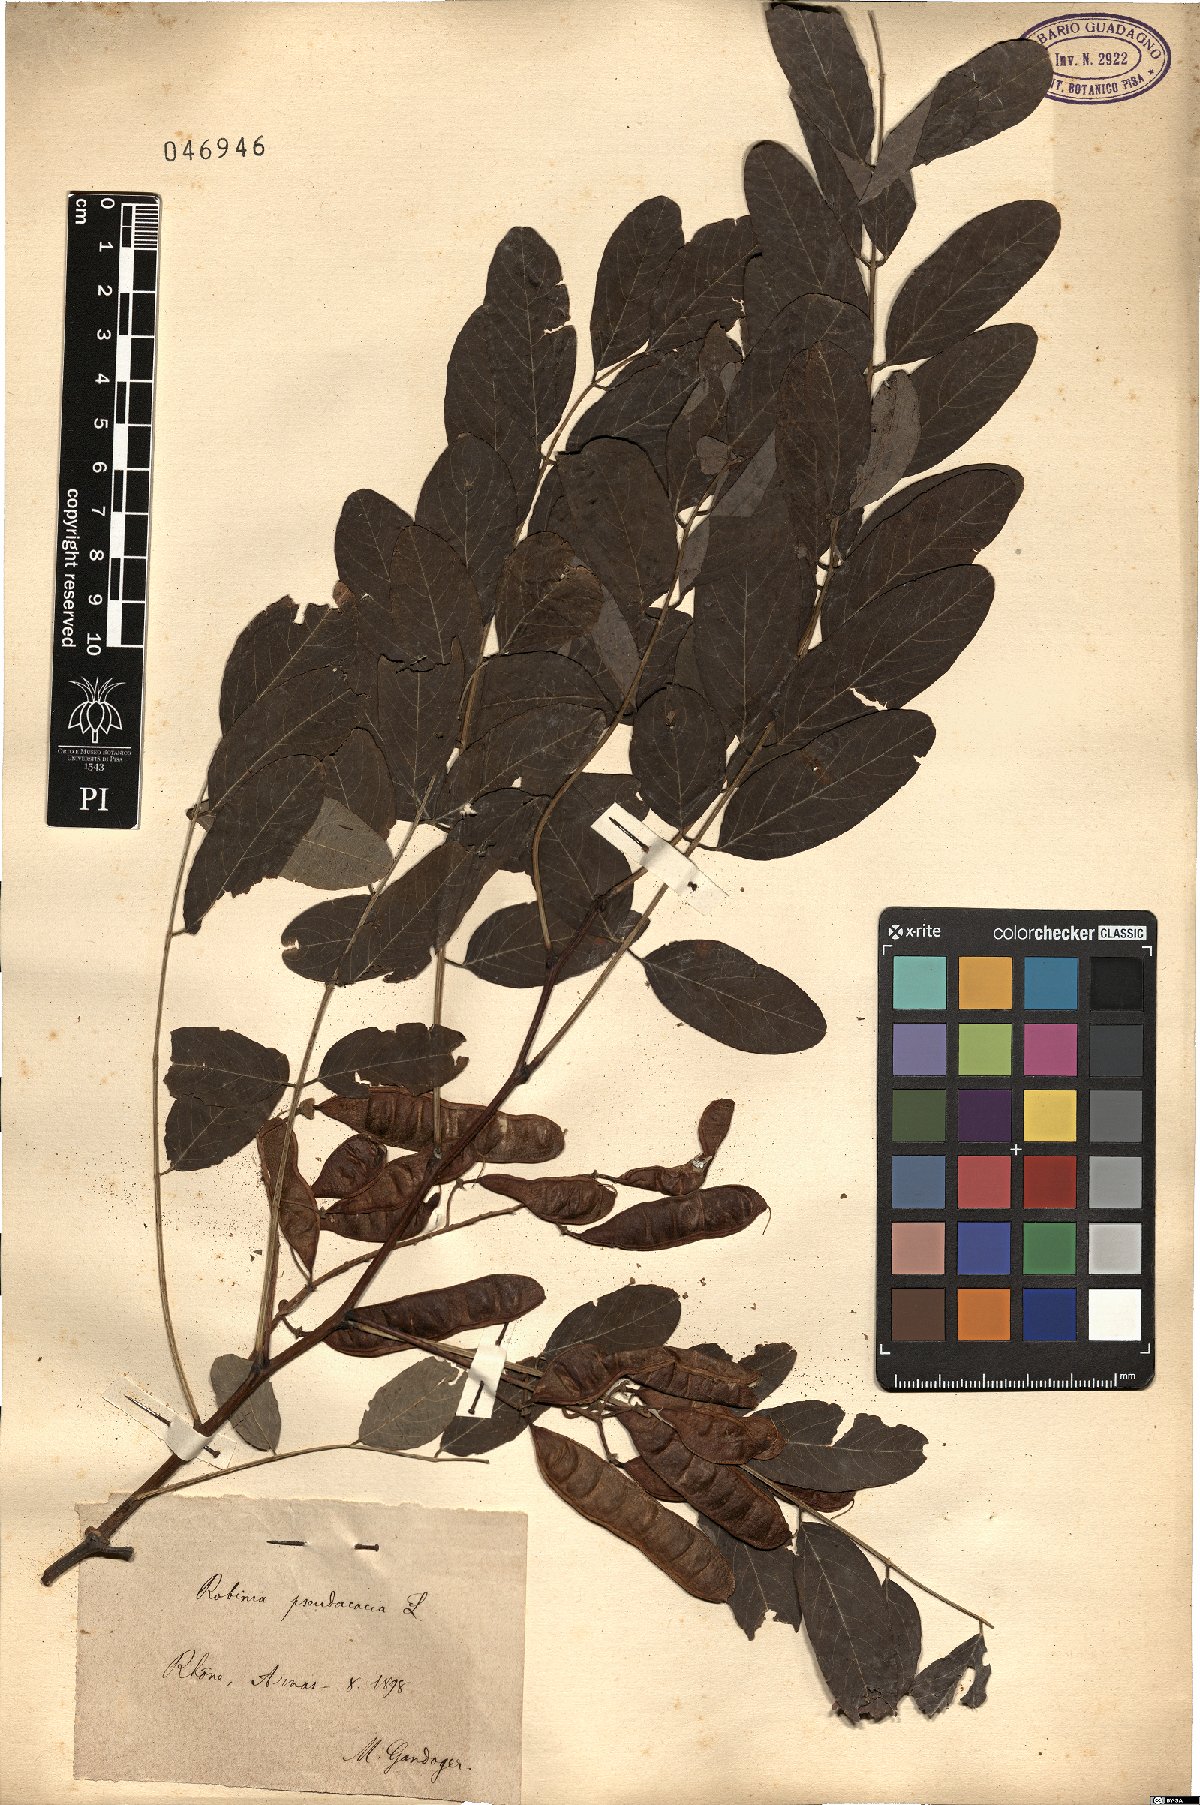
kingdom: Plantae
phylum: Tracheophyta
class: Magnoliopsida
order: Fabales
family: Fabaceae
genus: Robinia
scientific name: Robinia pseudoacacia
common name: Black locust
